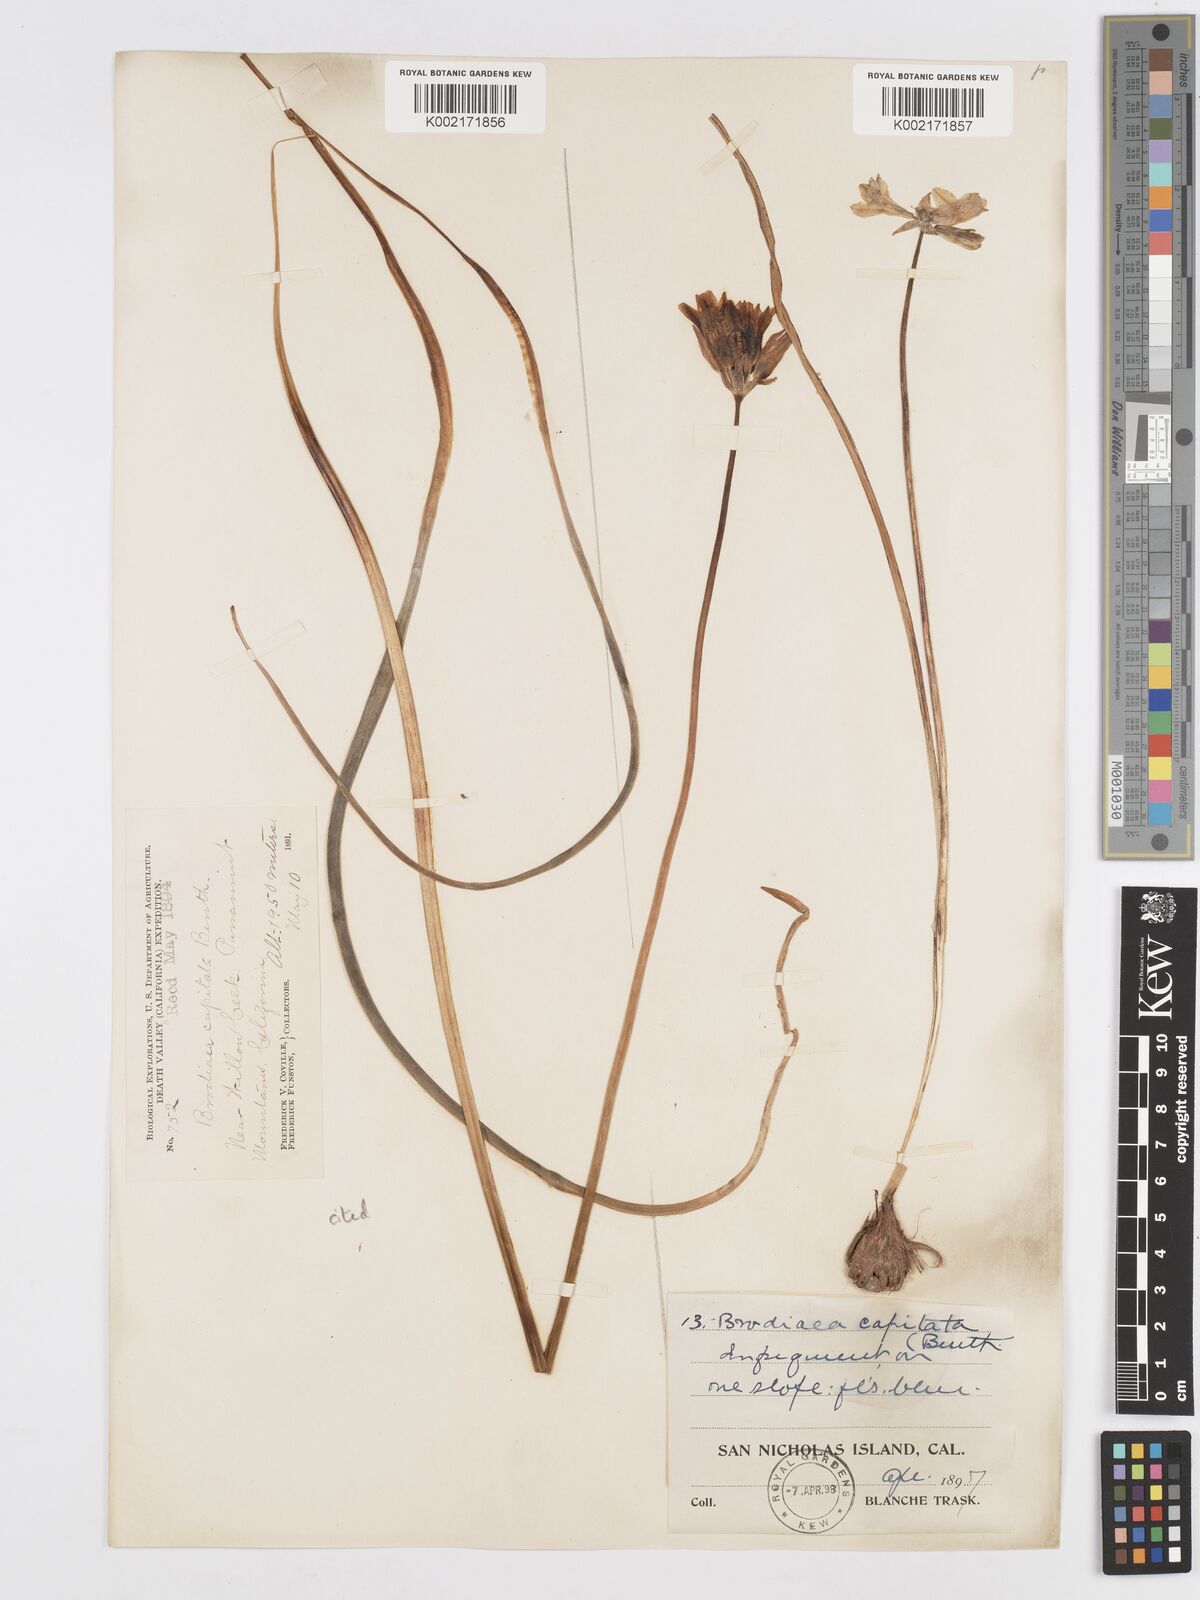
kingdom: Plantae
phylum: Tracheophyta
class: Liliopsida
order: Asparagales
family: Asparagaceae
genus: Dichelostemma
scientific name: Dichelostemma congestum
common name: Fork-tooth ookow
